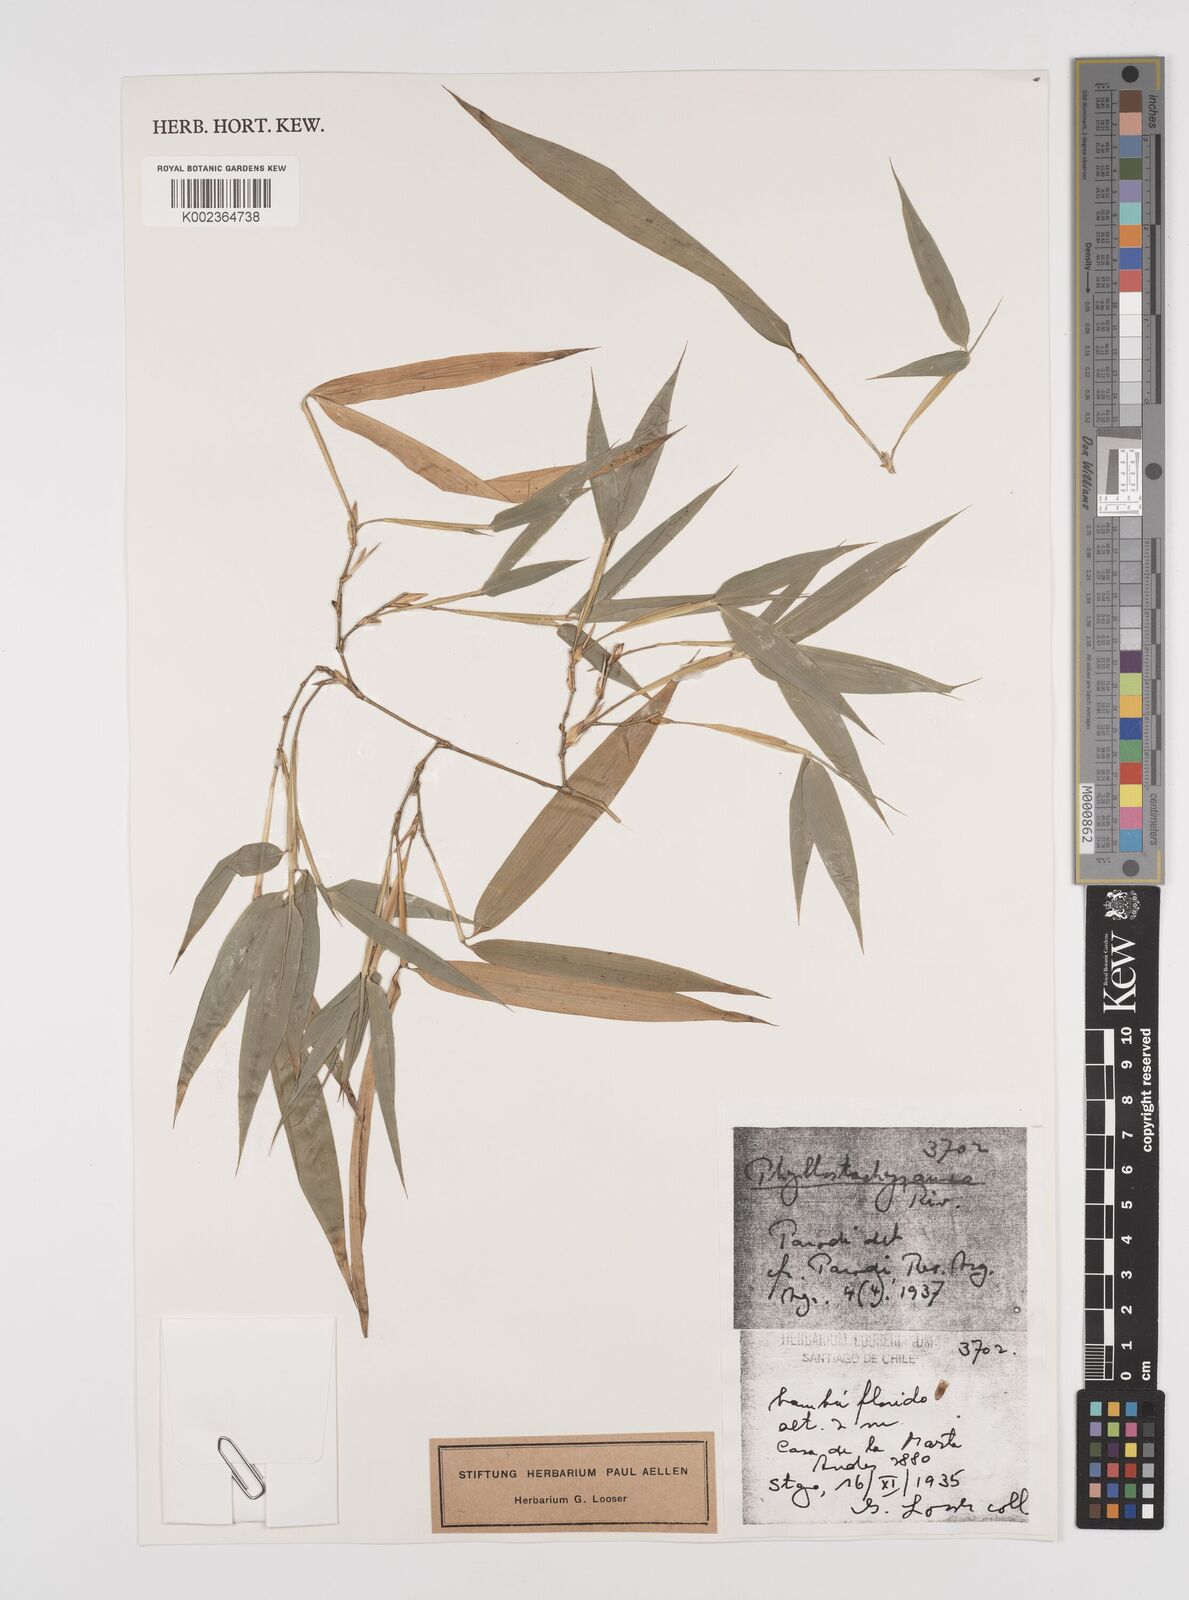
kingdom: Plantae
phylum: Tracheophyta
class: Liliopsida
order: Poales
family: Poaceae
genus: Phyllostachys
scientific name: Phyllostachys
